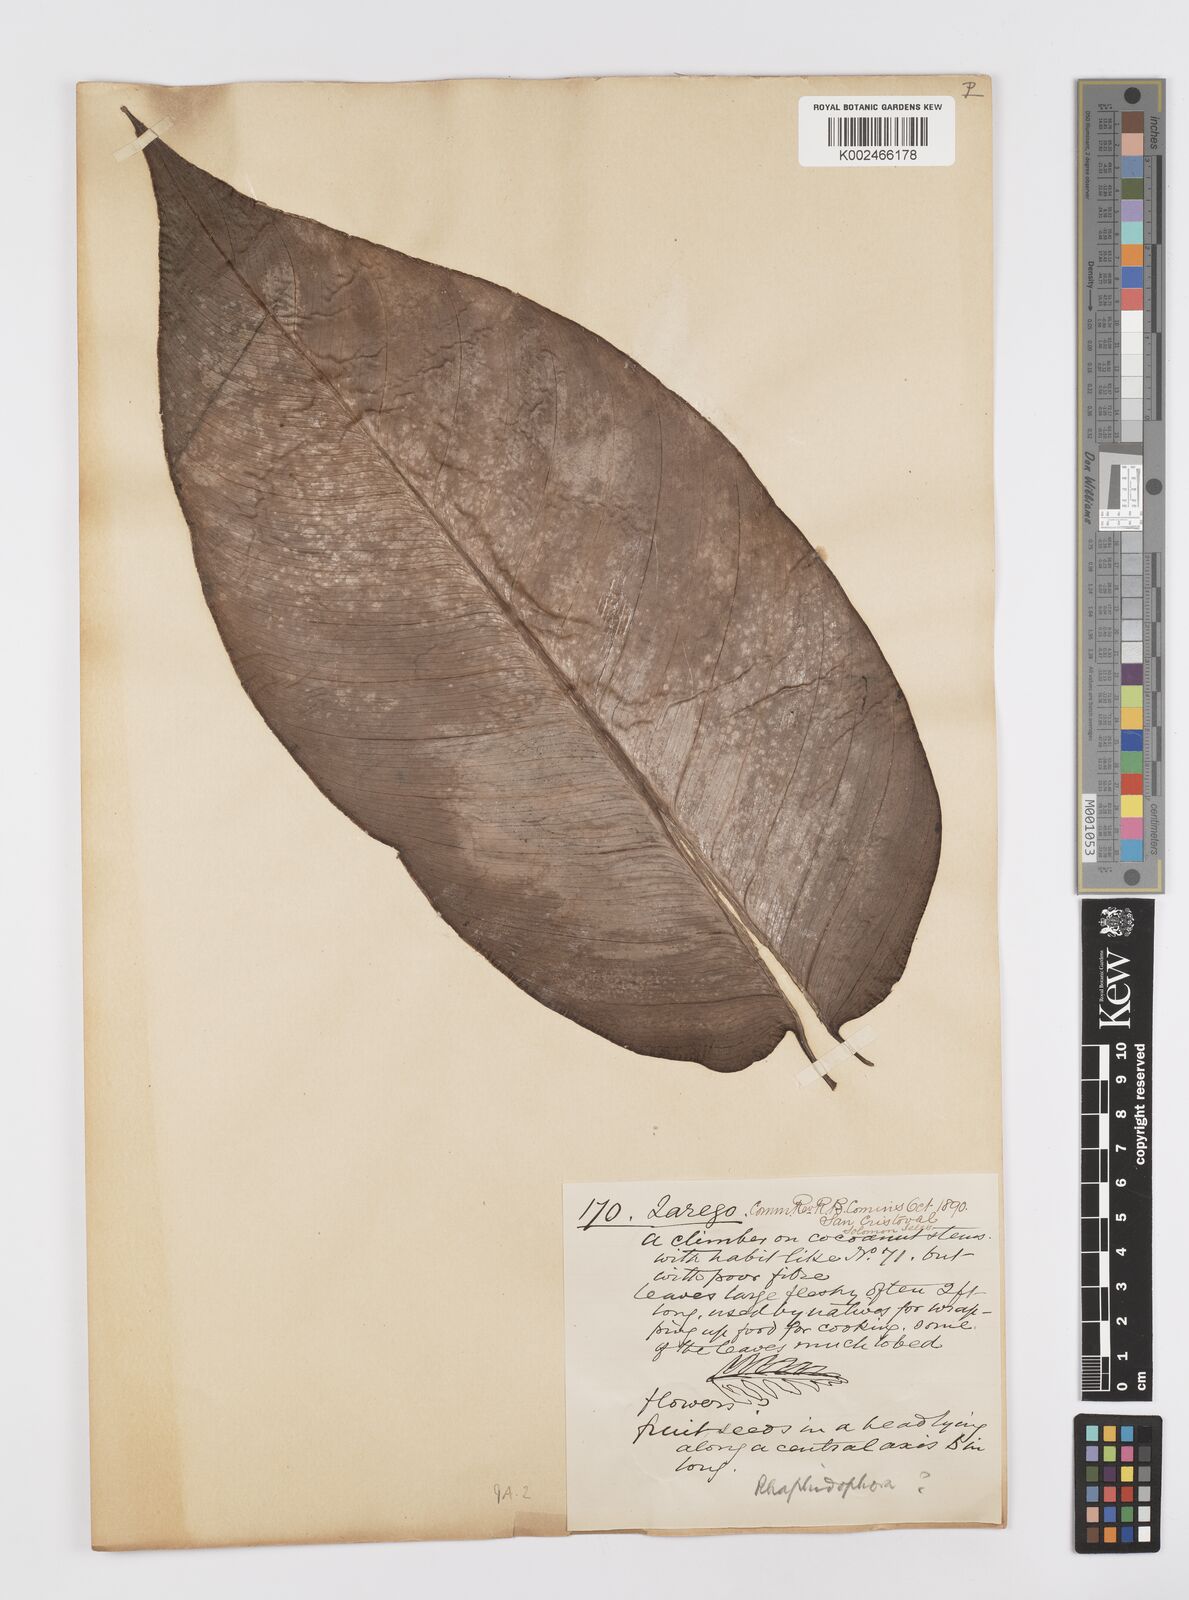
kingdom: Plantae
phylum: Tracheophyta
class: Liliopsida
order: Alismatales
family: Araceae
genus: Rhaphidophora
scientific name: Rhaphidophora
